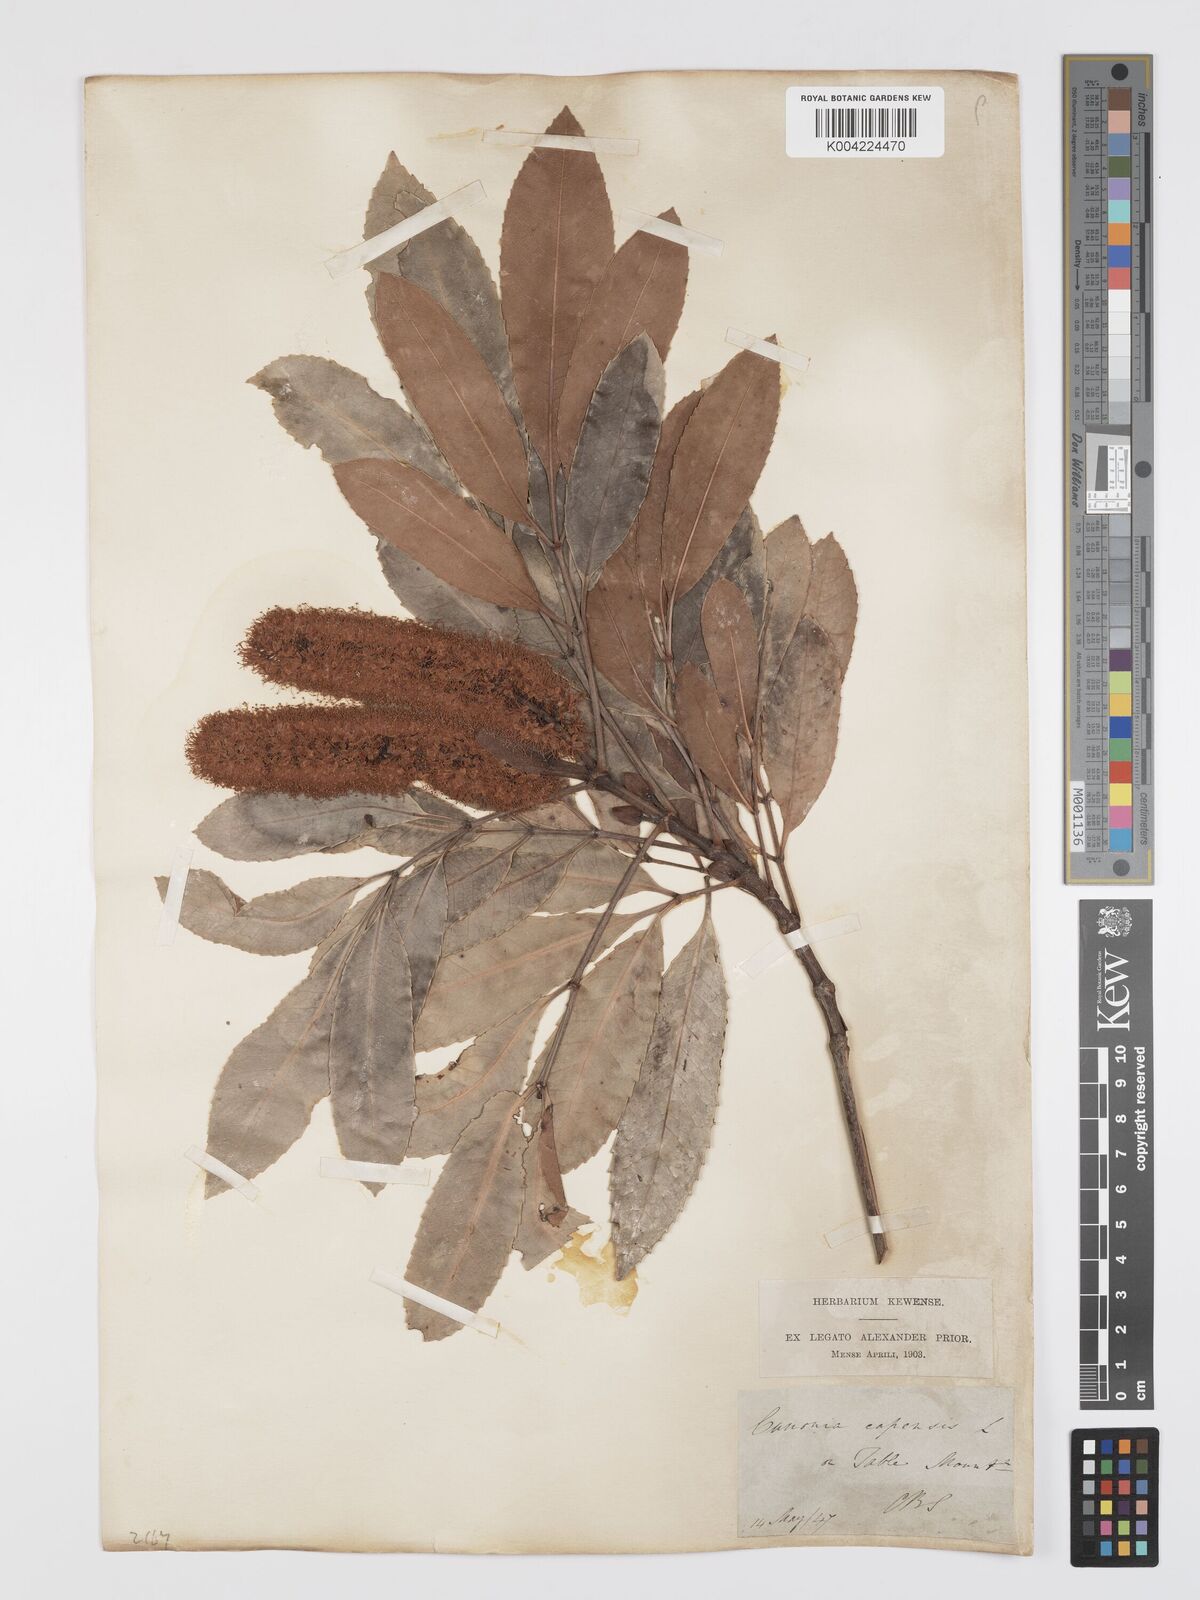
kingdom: Plantae
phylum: Tracheophyta
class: Magnoliopsida
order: Oxalidales
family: Cunoniaceae
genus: Cunonia
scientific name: Cunonia
